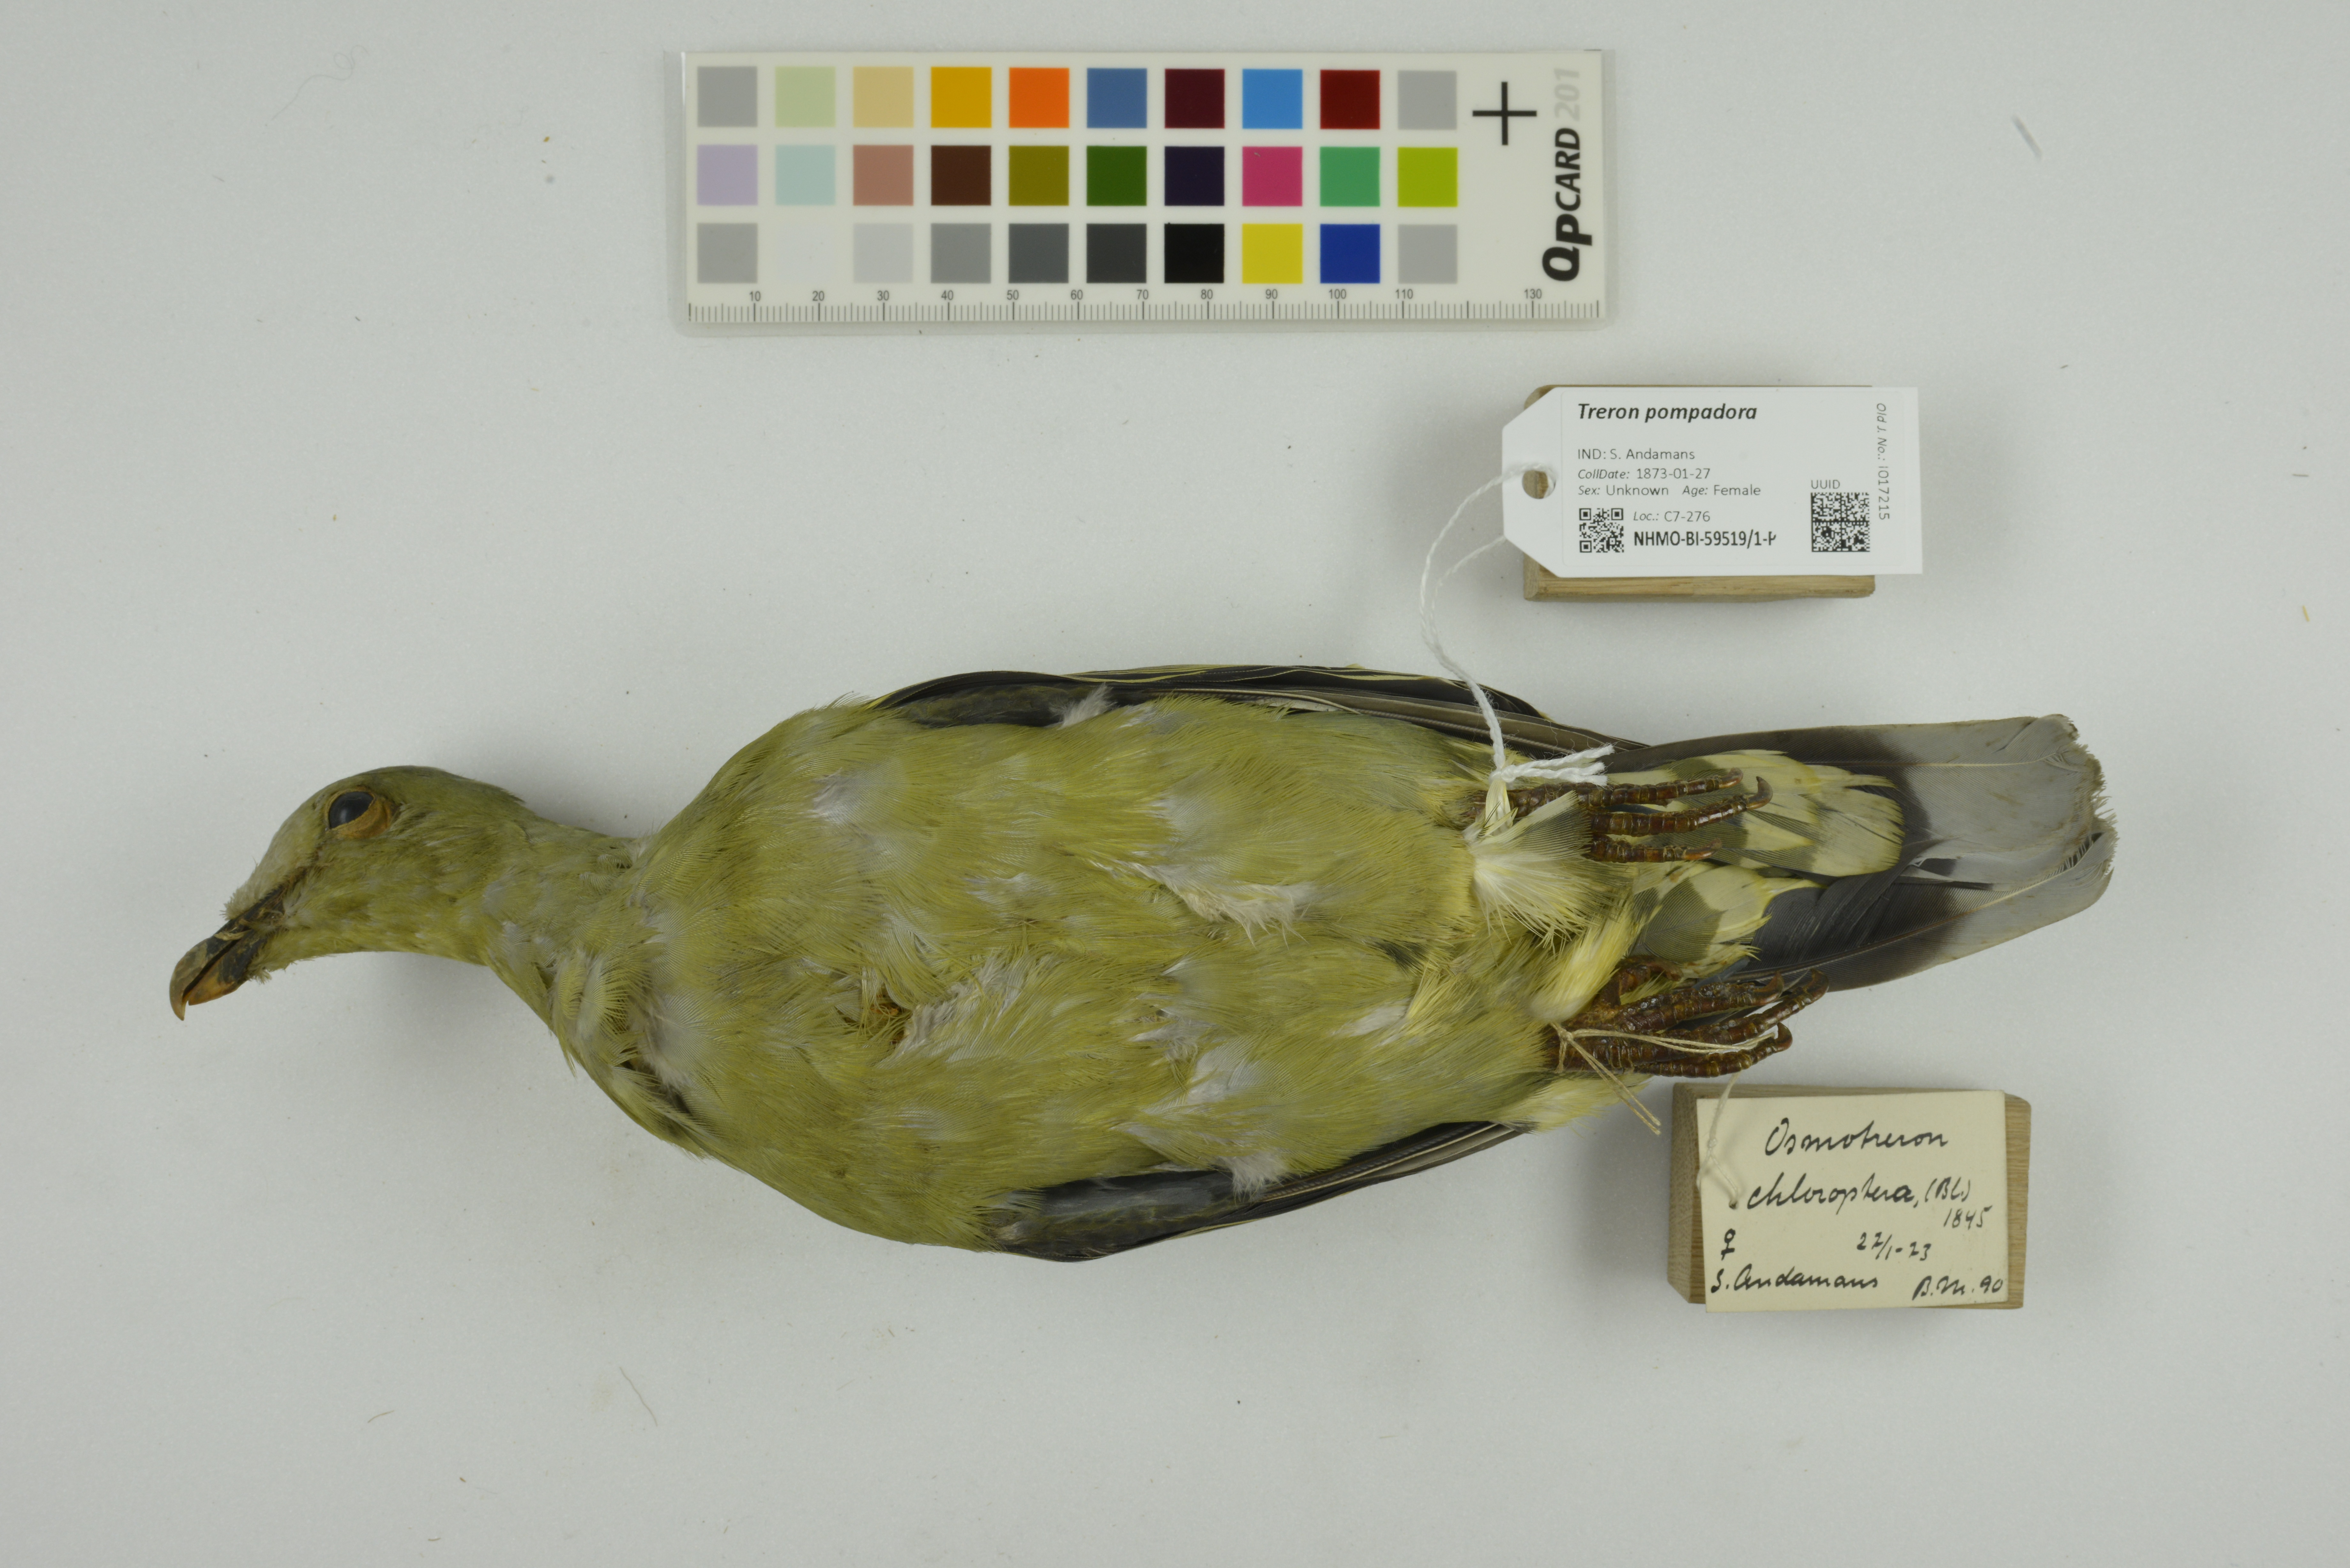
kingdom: Animalia
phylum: Chordata
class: Aves
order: Columbiformes
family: Columbidae
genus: Treron
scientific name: Treron pompadora
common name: Pompadour green pigeon
